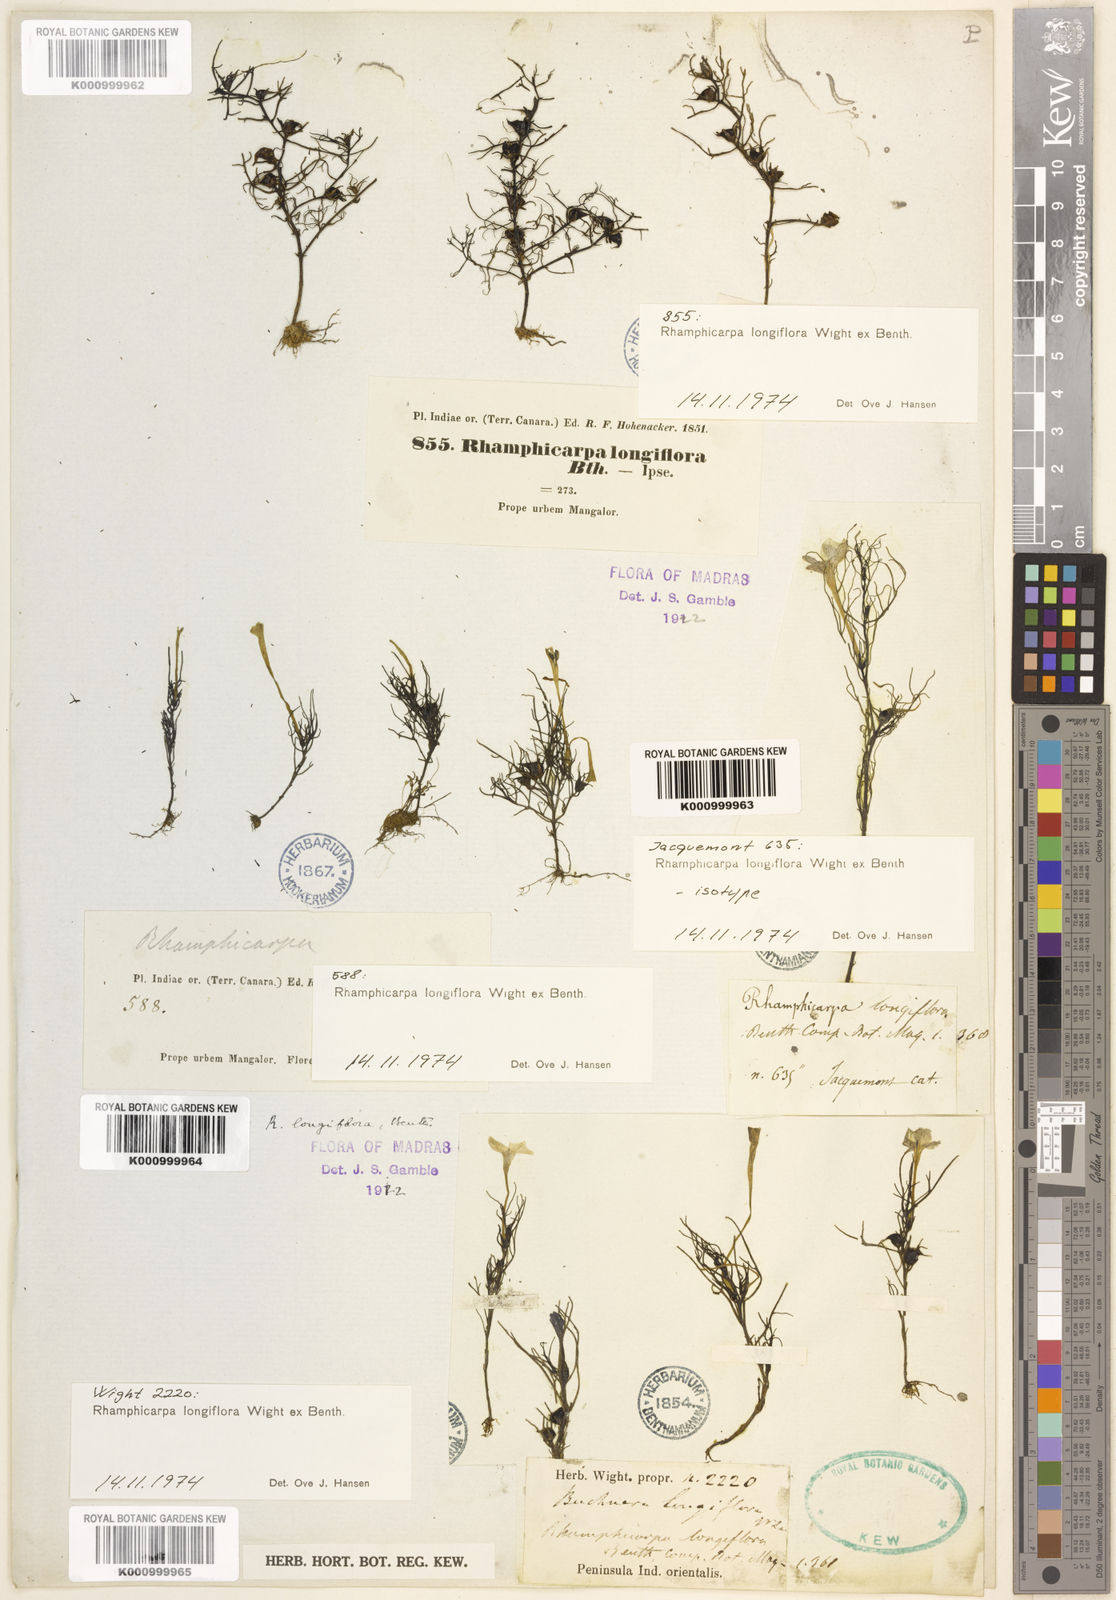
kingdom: Plantae
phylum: Tracheophyta
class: Magnoliopsida
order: Lamiales
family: Orobanchaceae
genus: Rhamphicarpa
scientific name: Rhamphicarpa elongata
